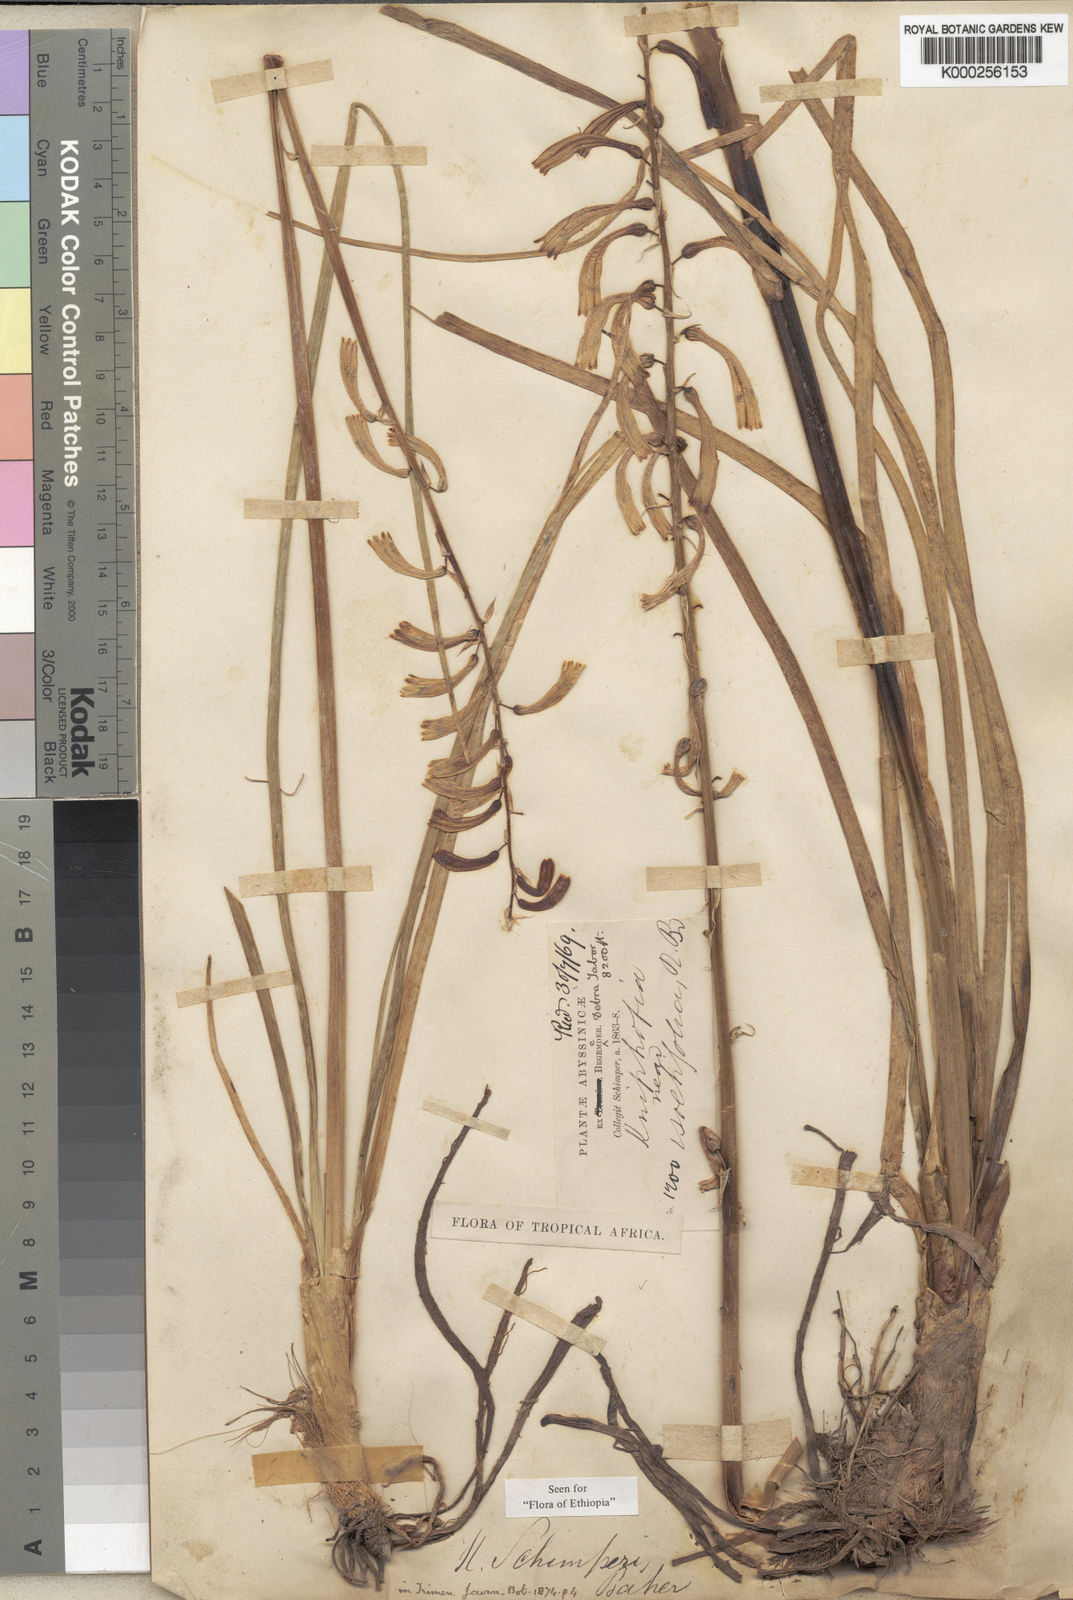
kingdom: Plantae
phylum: Tracheophyta
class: Liliopsida
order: Asparagales
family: Asphodelaceae
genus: Kniphofia
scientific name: Kniphofia schimperi
